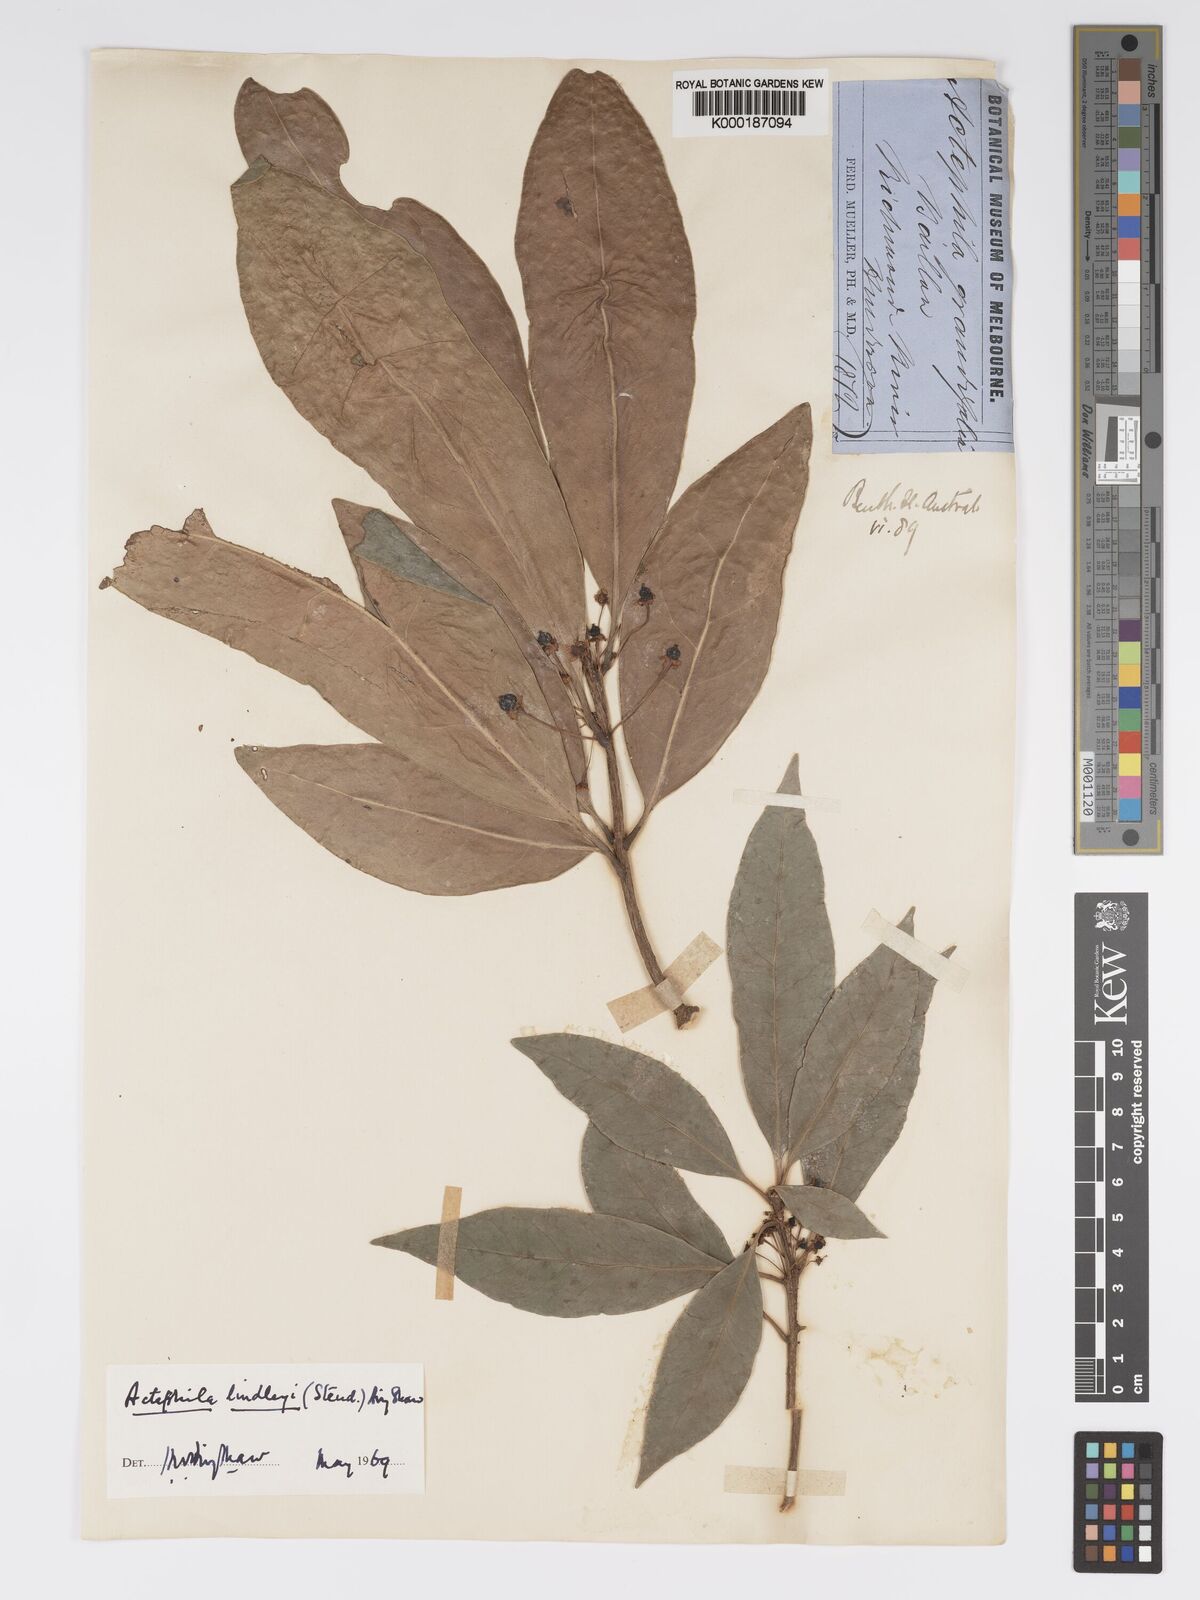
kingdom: Plantae
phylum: Tracheophyta
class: Magnoliopsida
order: Malpighiales
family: Phyllanthaceae
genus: Actephila
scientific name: Actephila lindleyi
